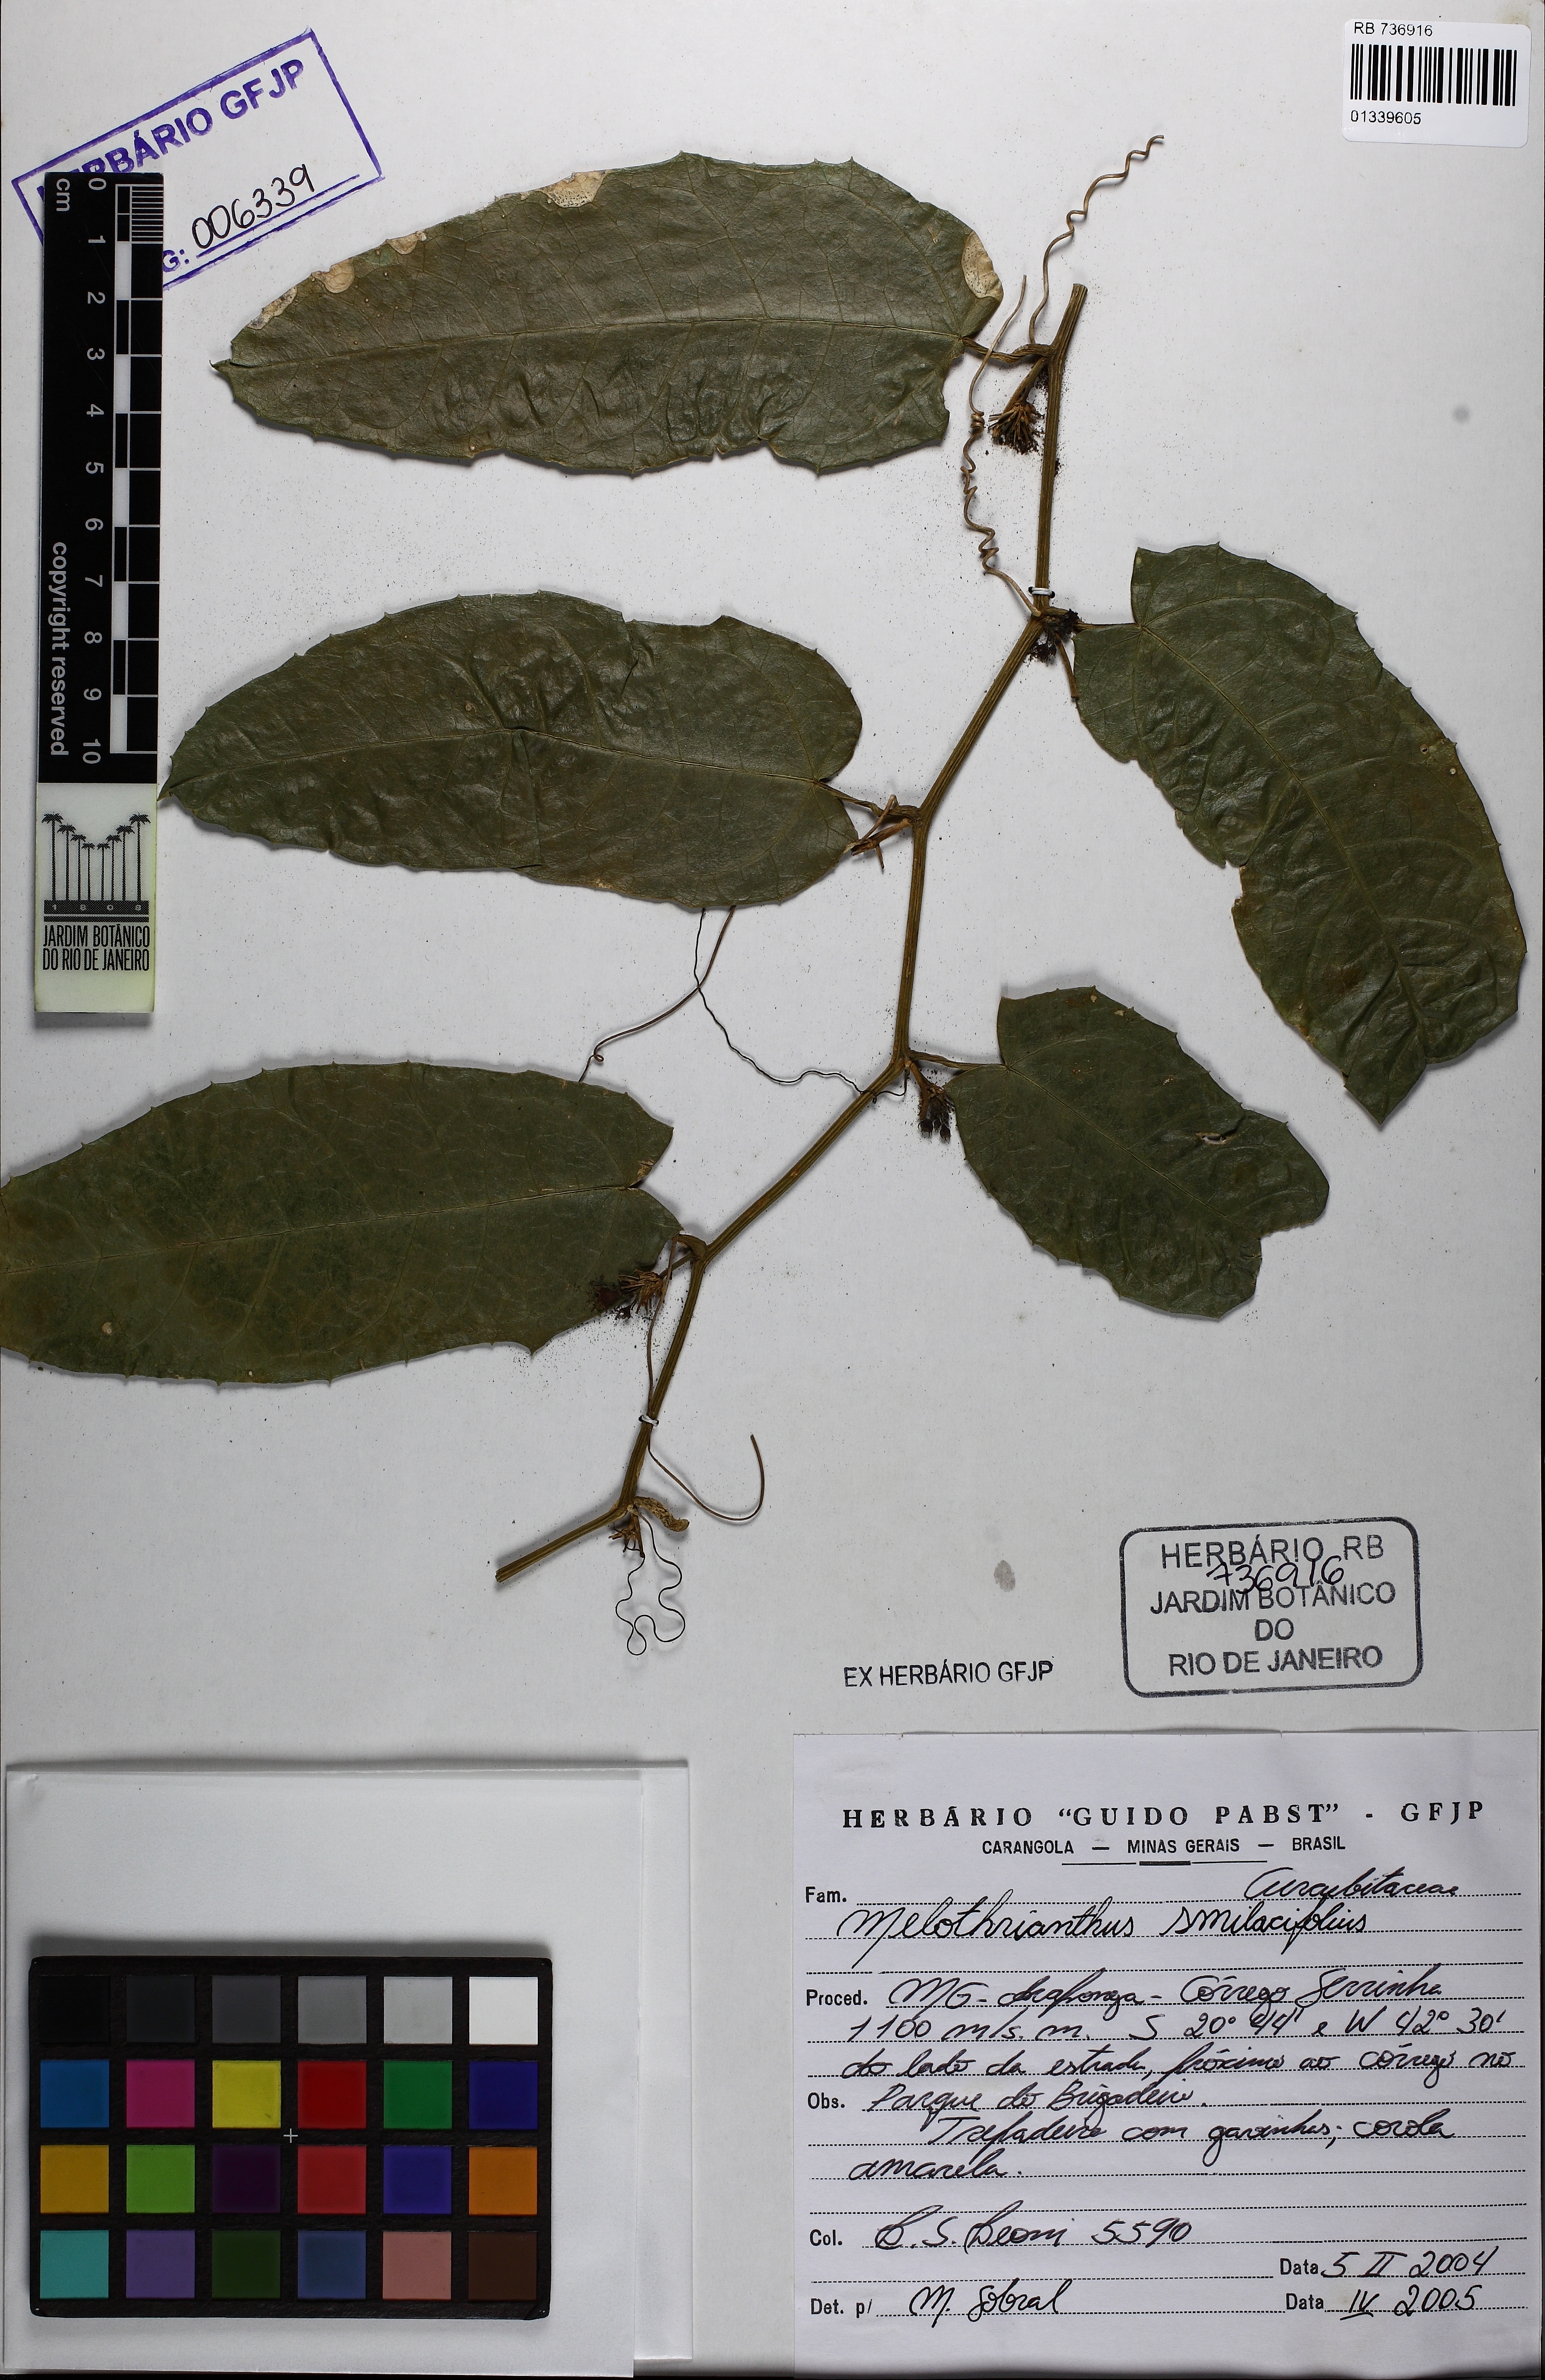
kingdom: Plantae
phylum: Tracheophyta
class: Magnoliopsida
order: Cucurbitales
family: Cucurbitaceae
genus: Apodanthera
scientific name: Apodanthera smilacifolia
